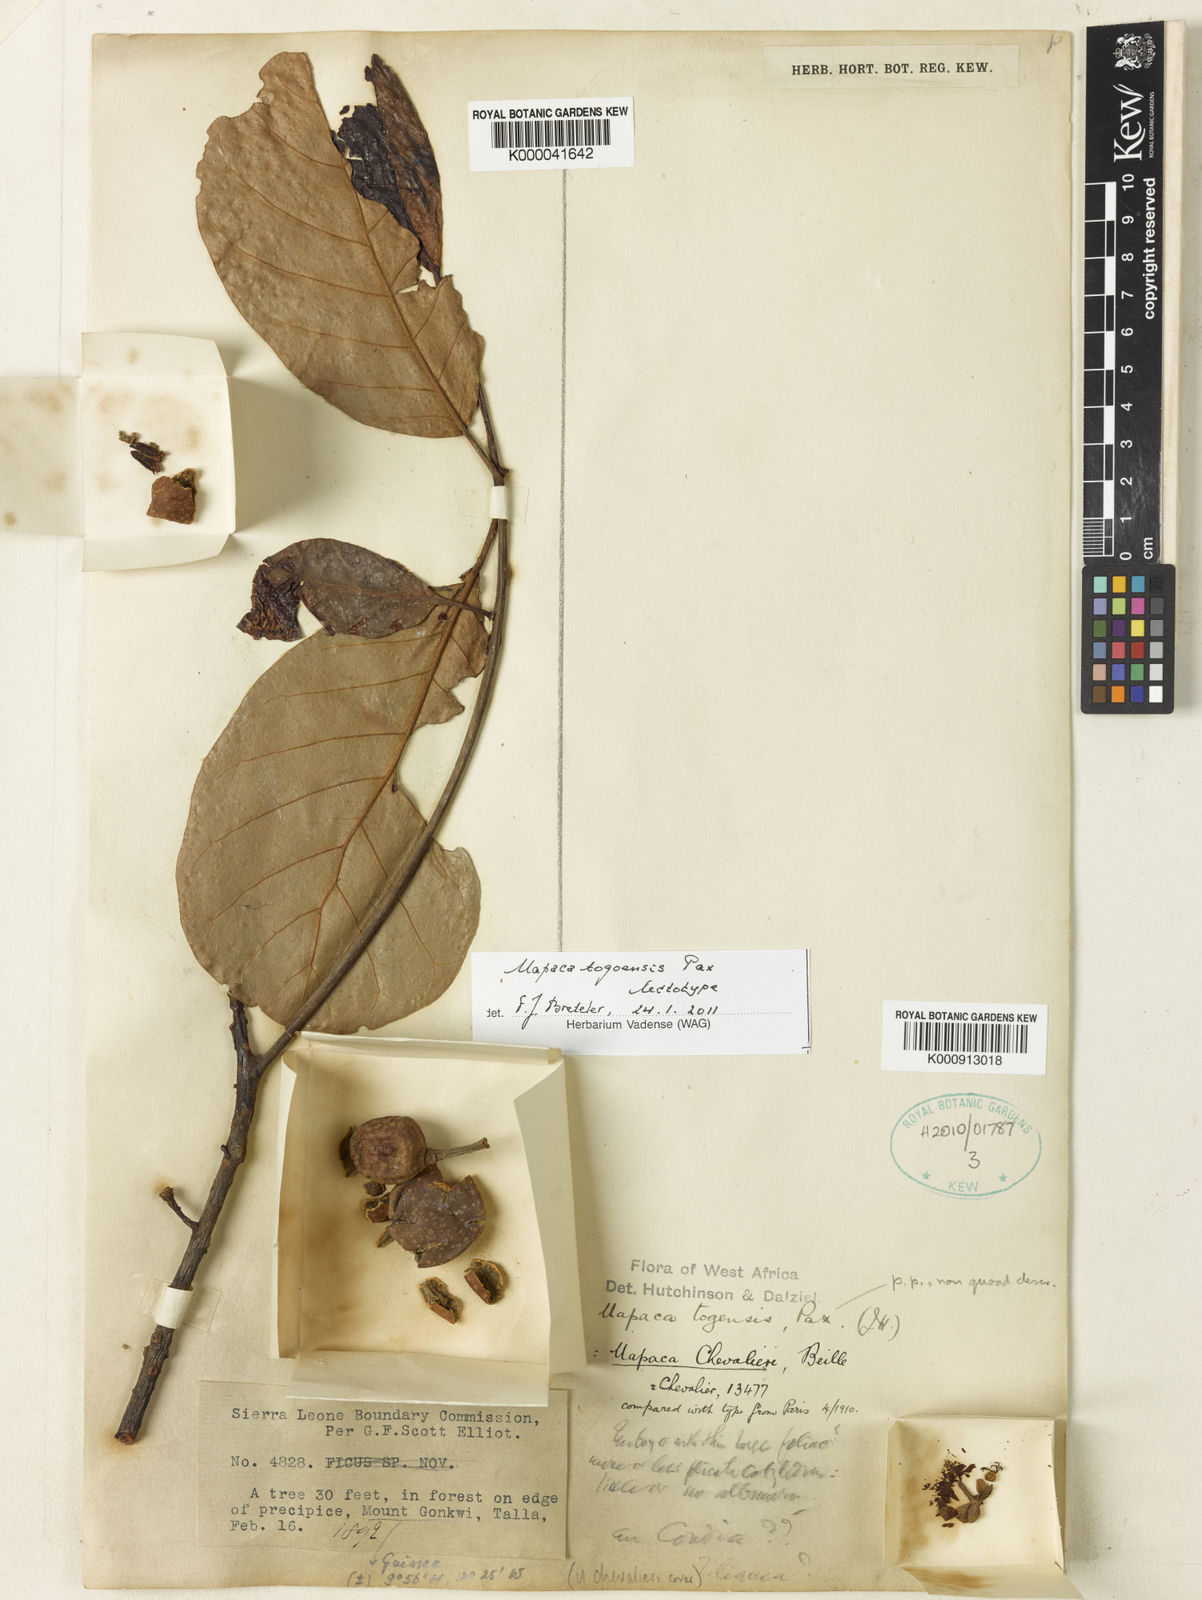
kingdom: Plantae
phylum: Tracheophyta
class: Magnoliopsida
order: Malpighiales
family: Phyllanthaceae
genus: Uapaca
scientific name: Uapaca togoensis
